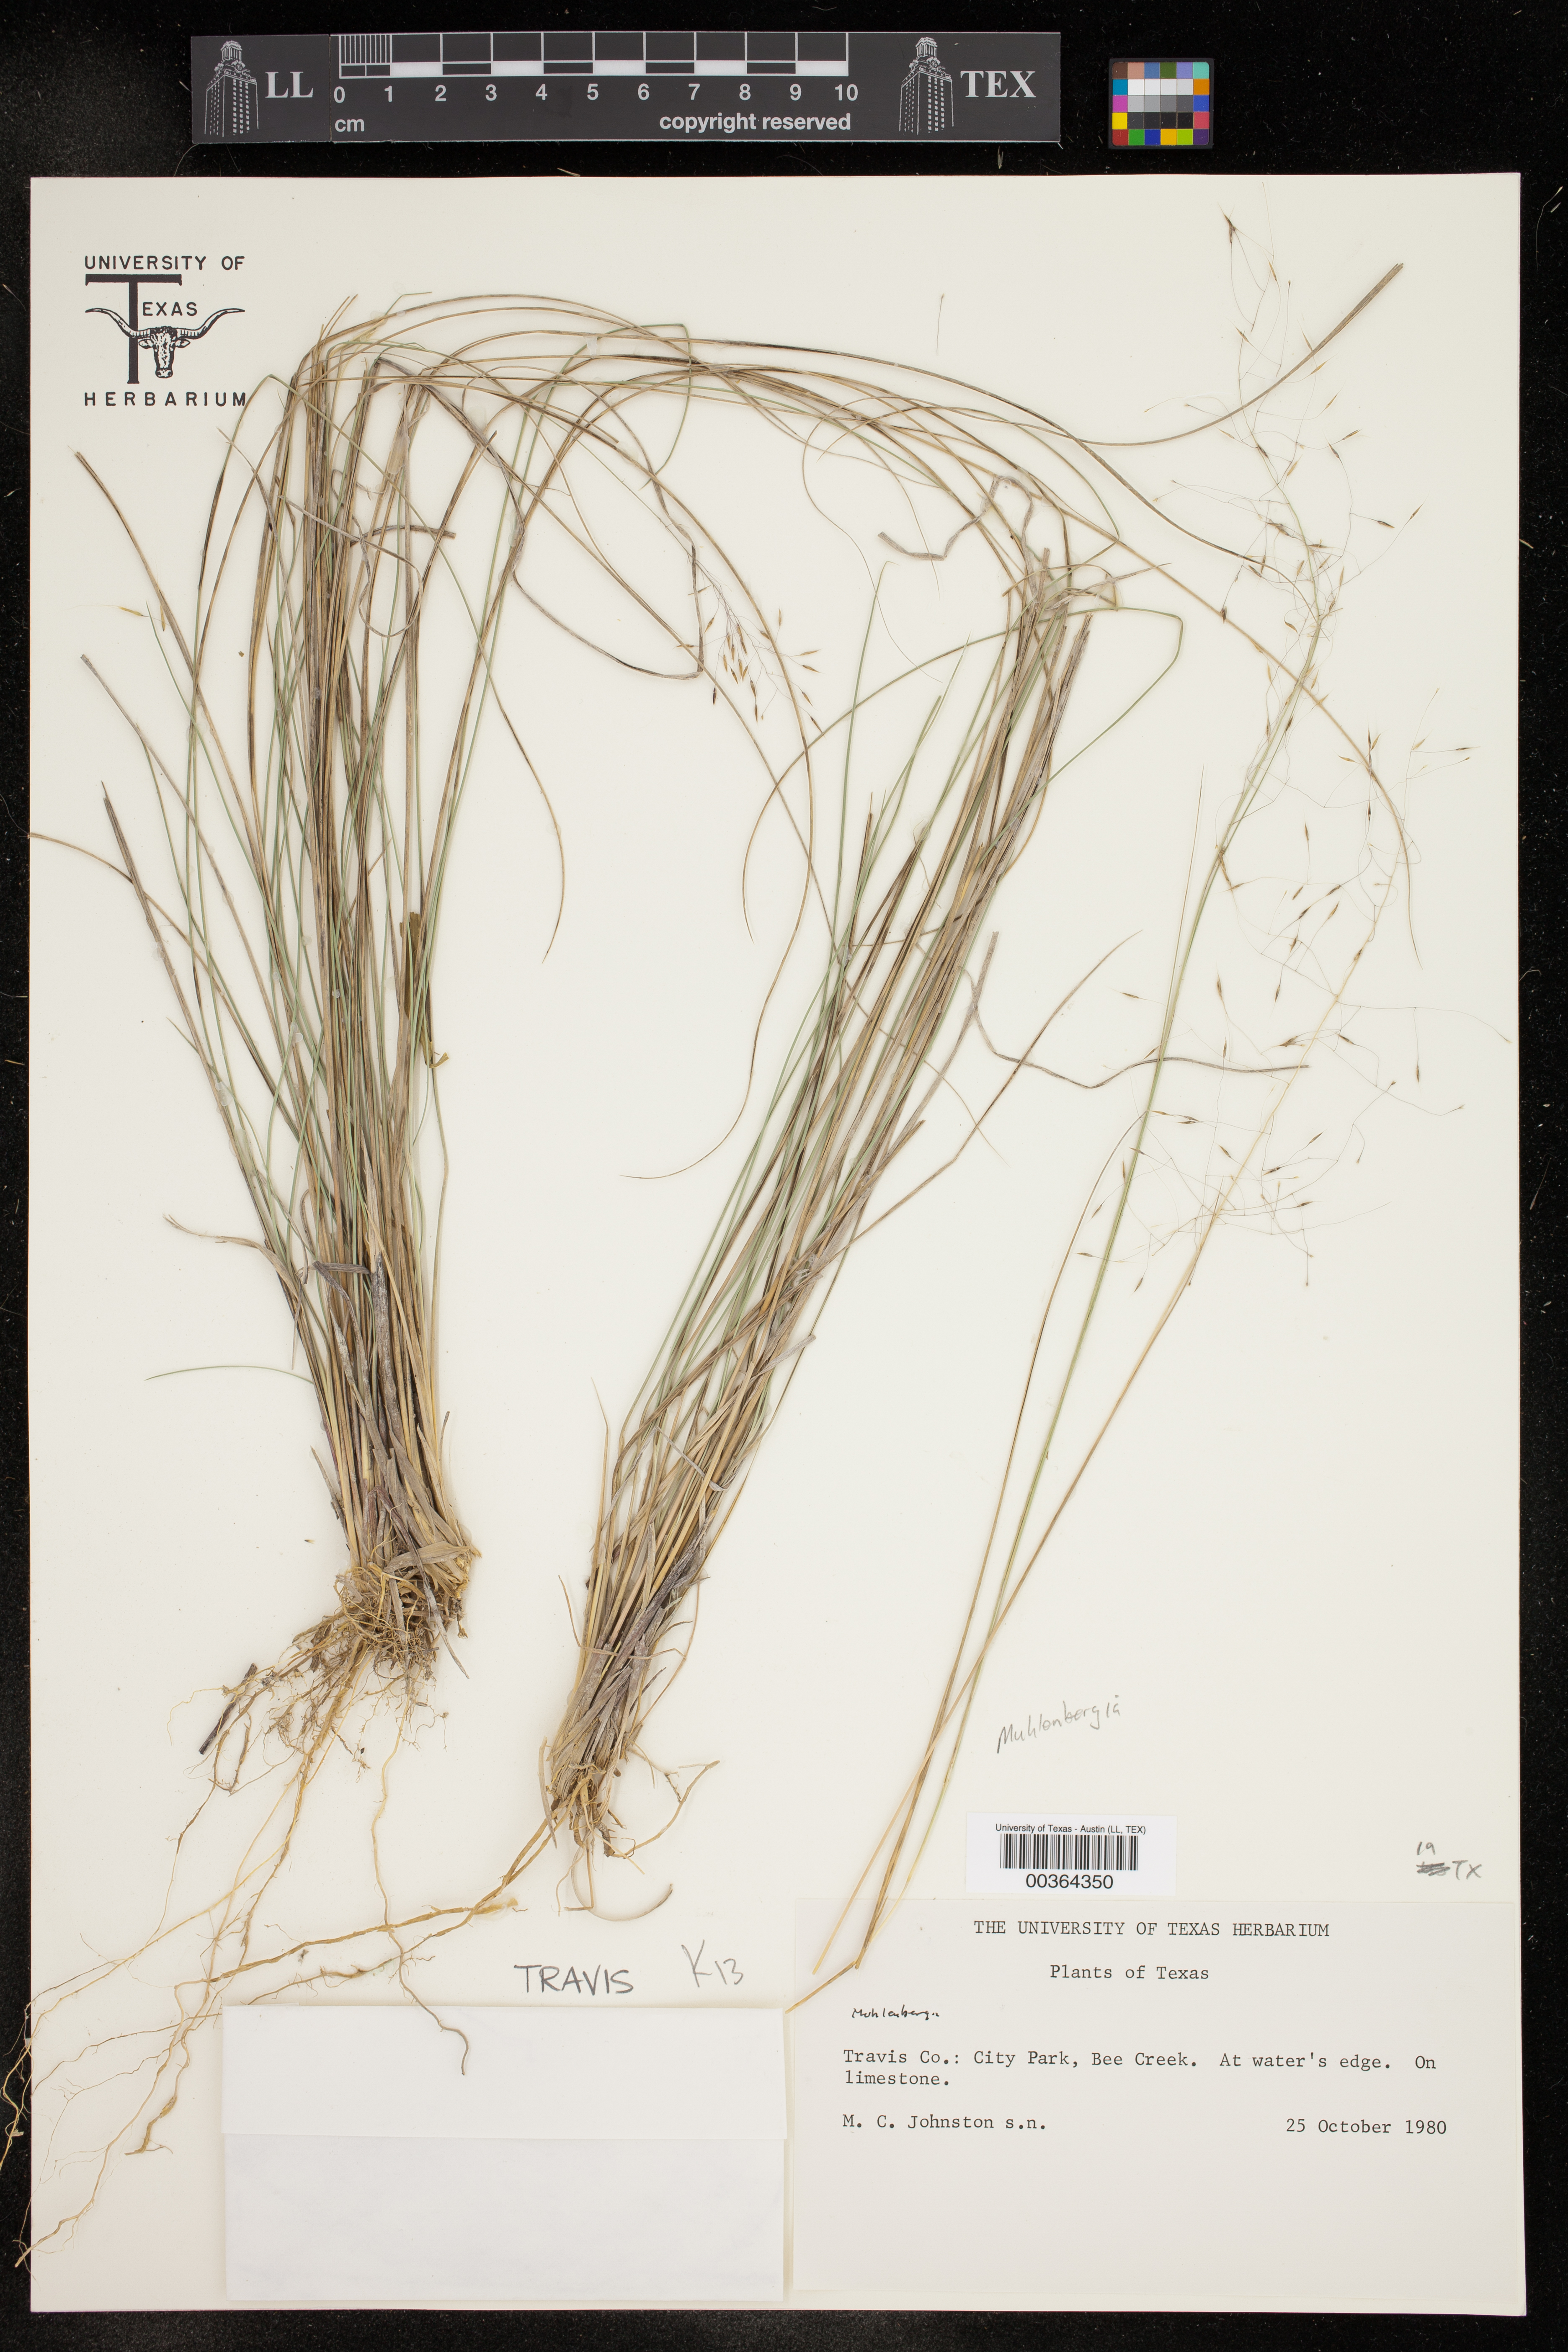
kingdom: Plantae
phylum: Tracheophyta
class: Liliopsida
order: Poales
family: Poaceae
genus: Muhlenbergia
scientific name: Muhlenbergia
